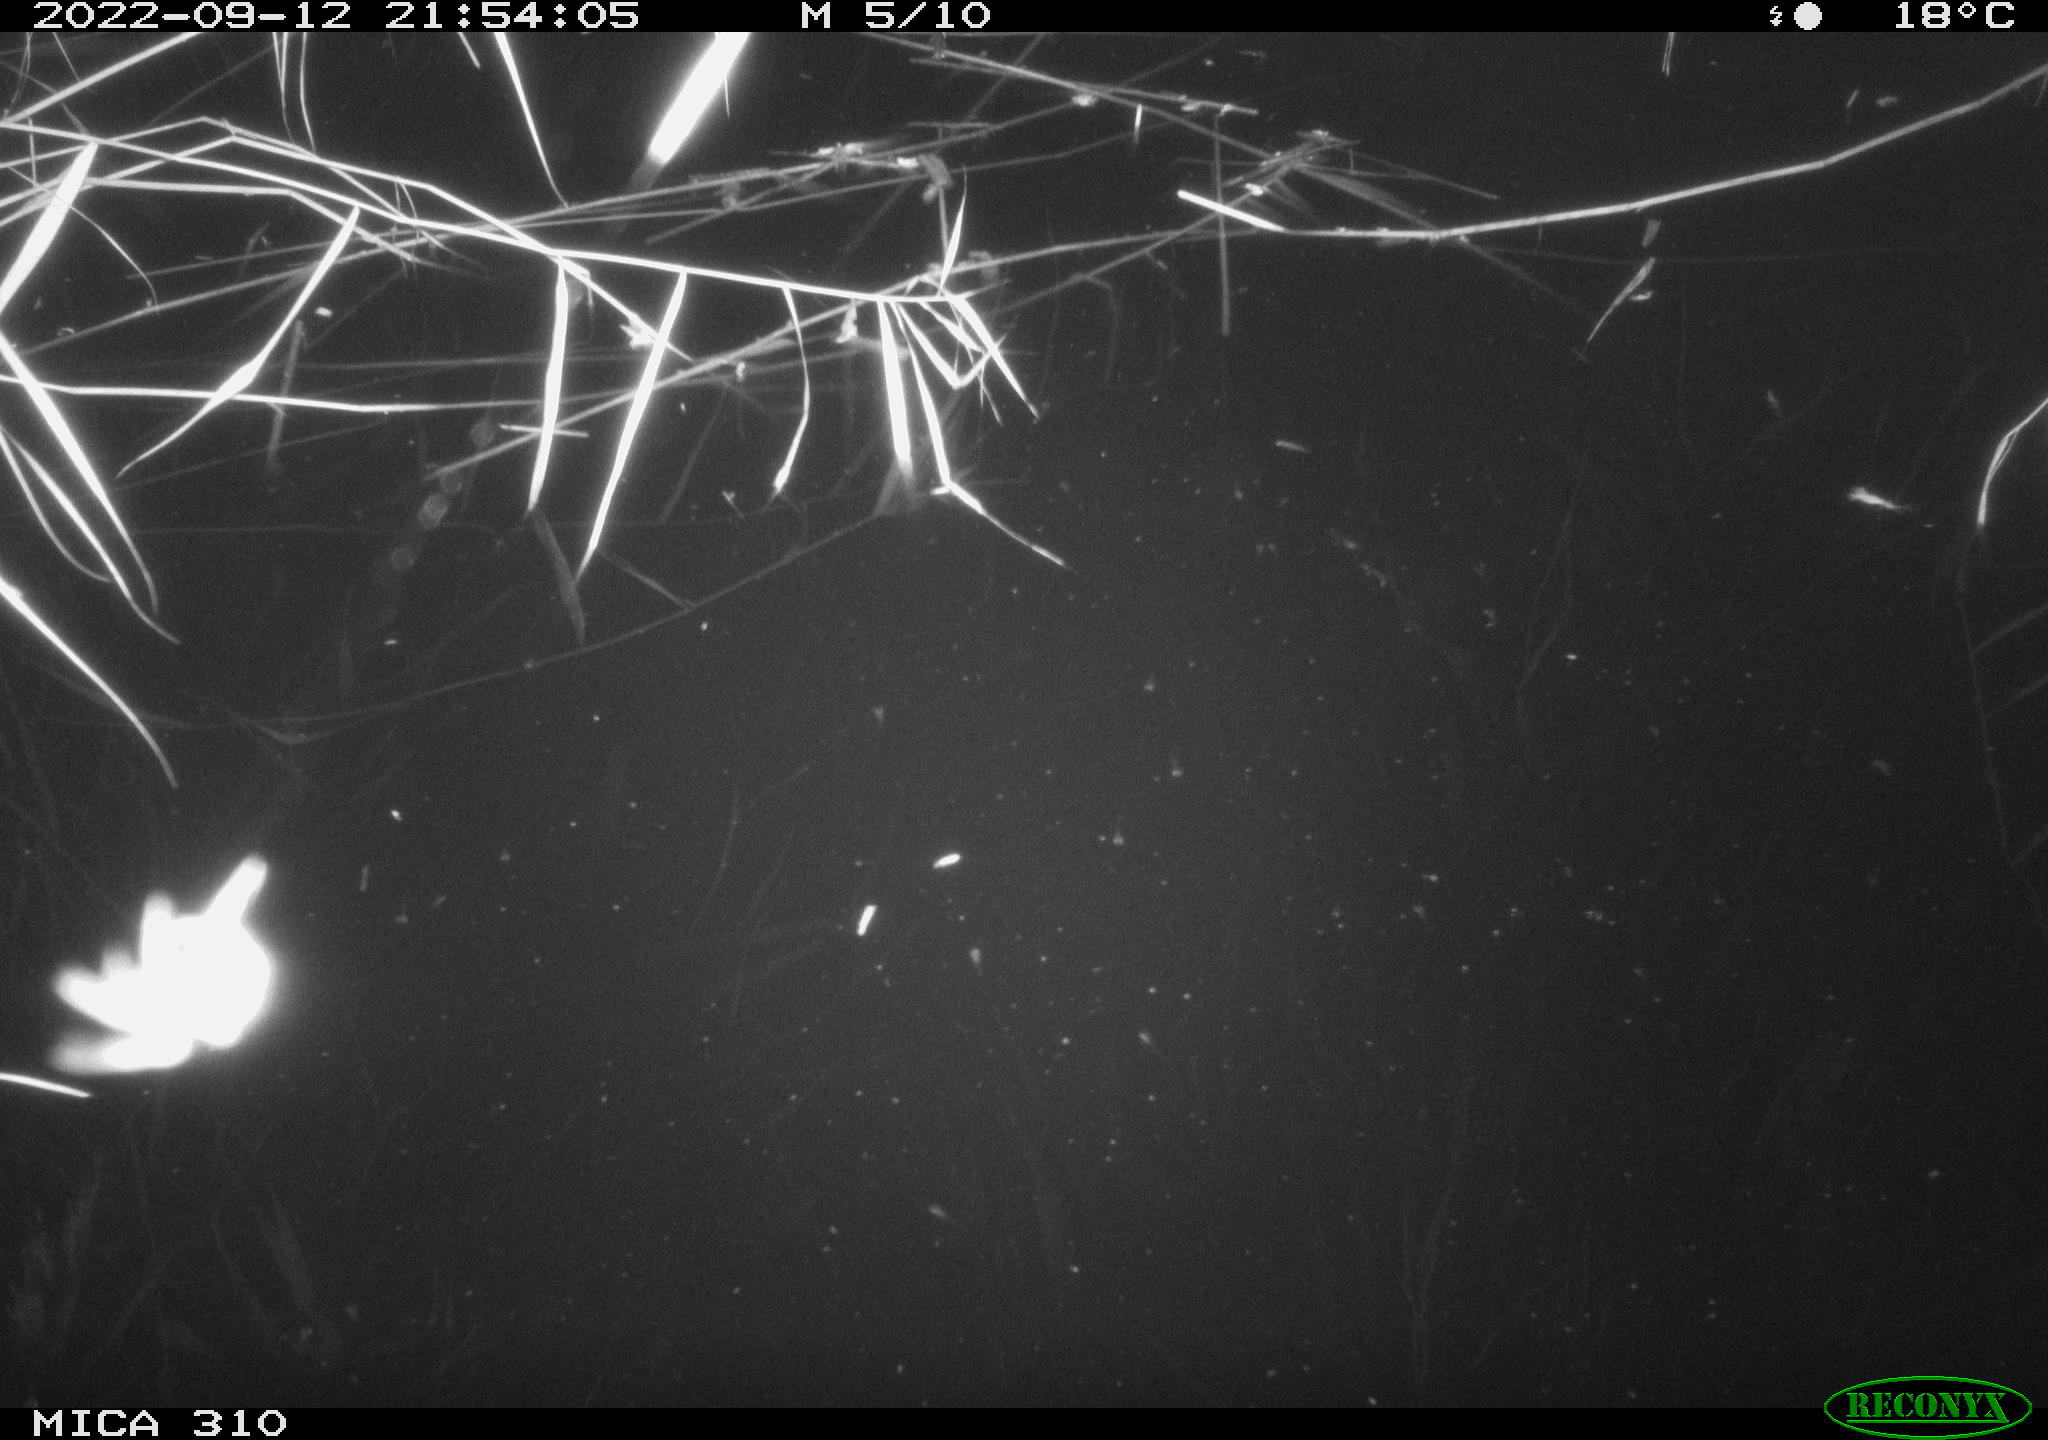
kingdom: Animalia
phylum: Chordata
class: Mammalia
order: Rodentia
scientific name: Rodentia
